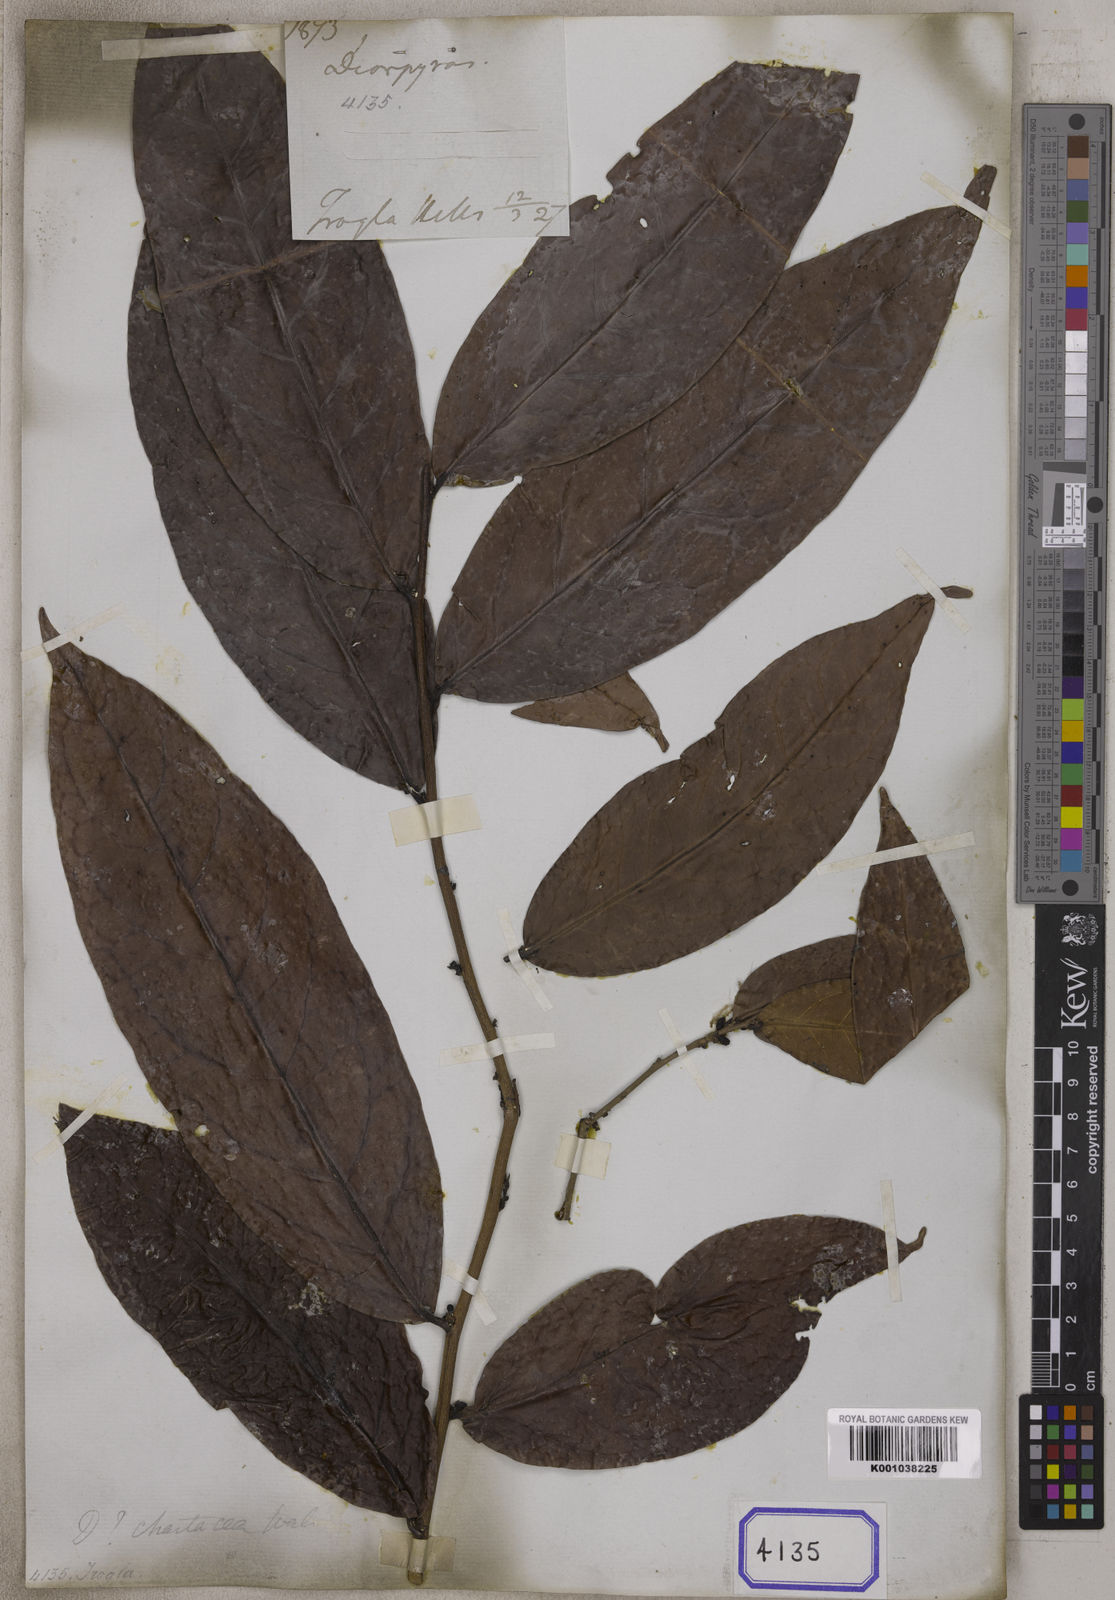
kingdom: Plantae
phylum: Tracheophyta
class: Magnoliopsida
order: Ericales
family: Ebenaceae
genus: Diospyros
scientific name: Diospyros
